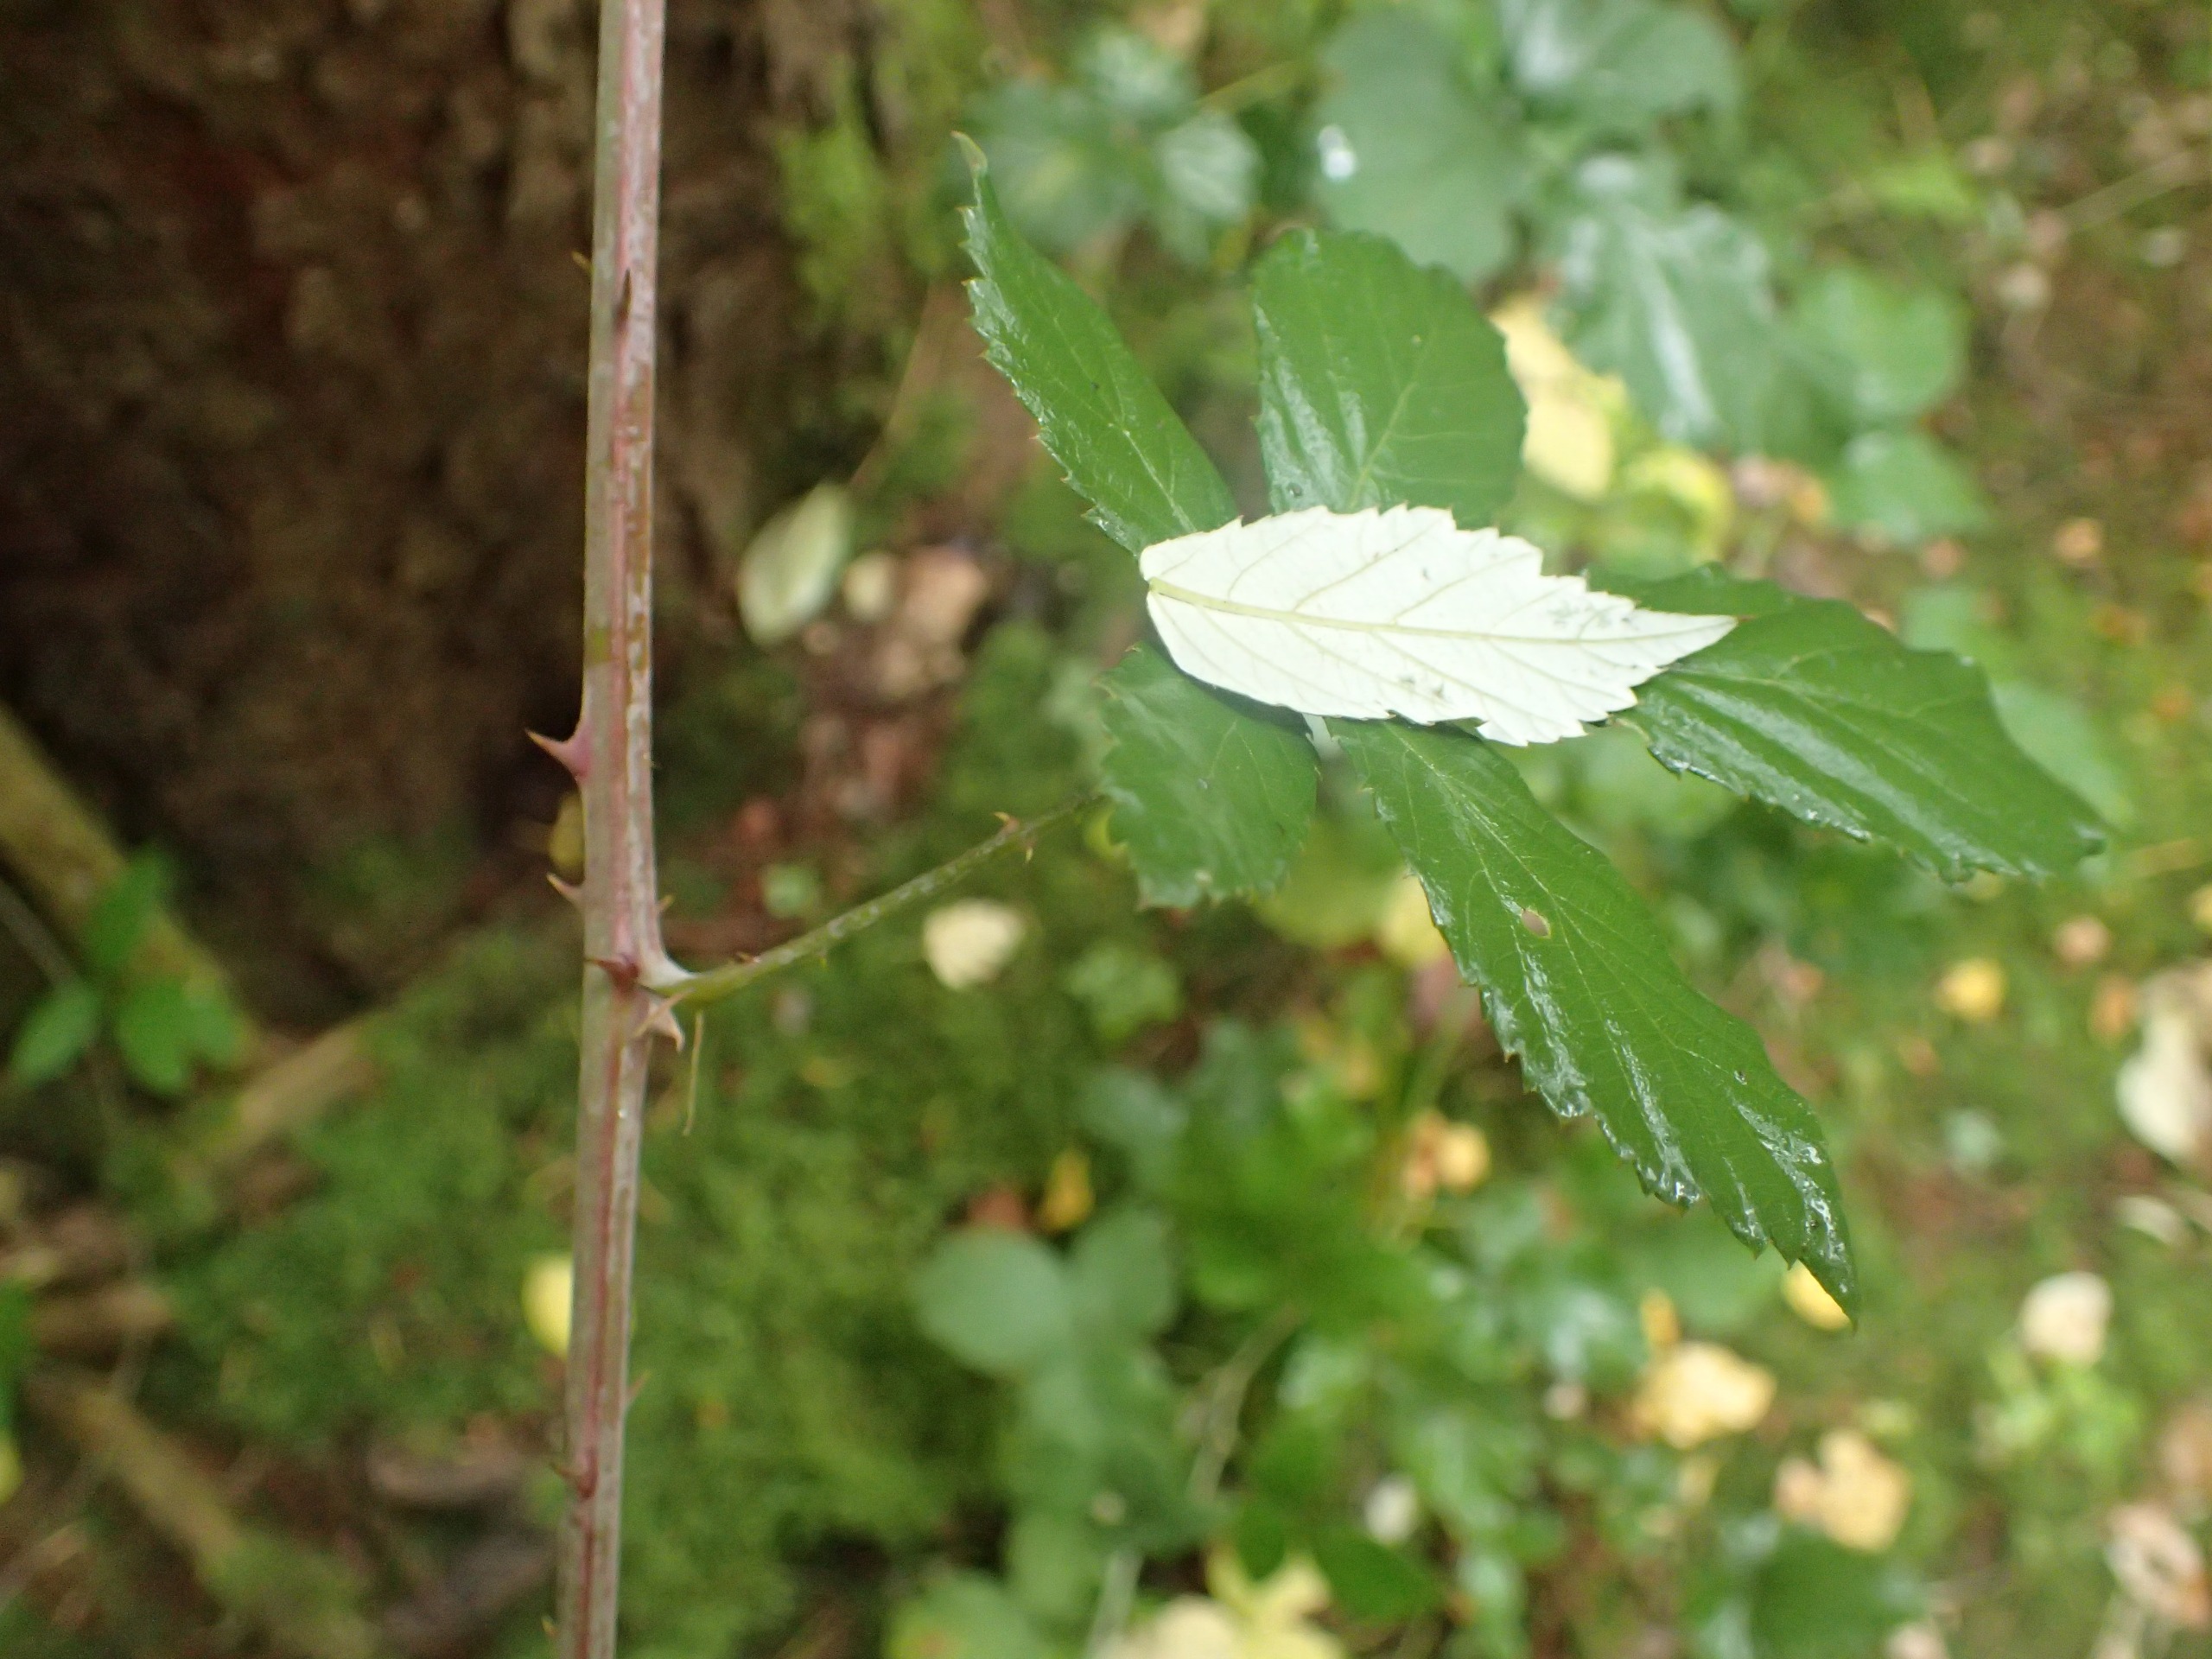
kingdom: Plantae
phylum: Tracheophyta
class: Magnoliopsida
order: Rosales
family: Rosaceae
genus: Rubus
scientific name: Rubus ulmifolius
